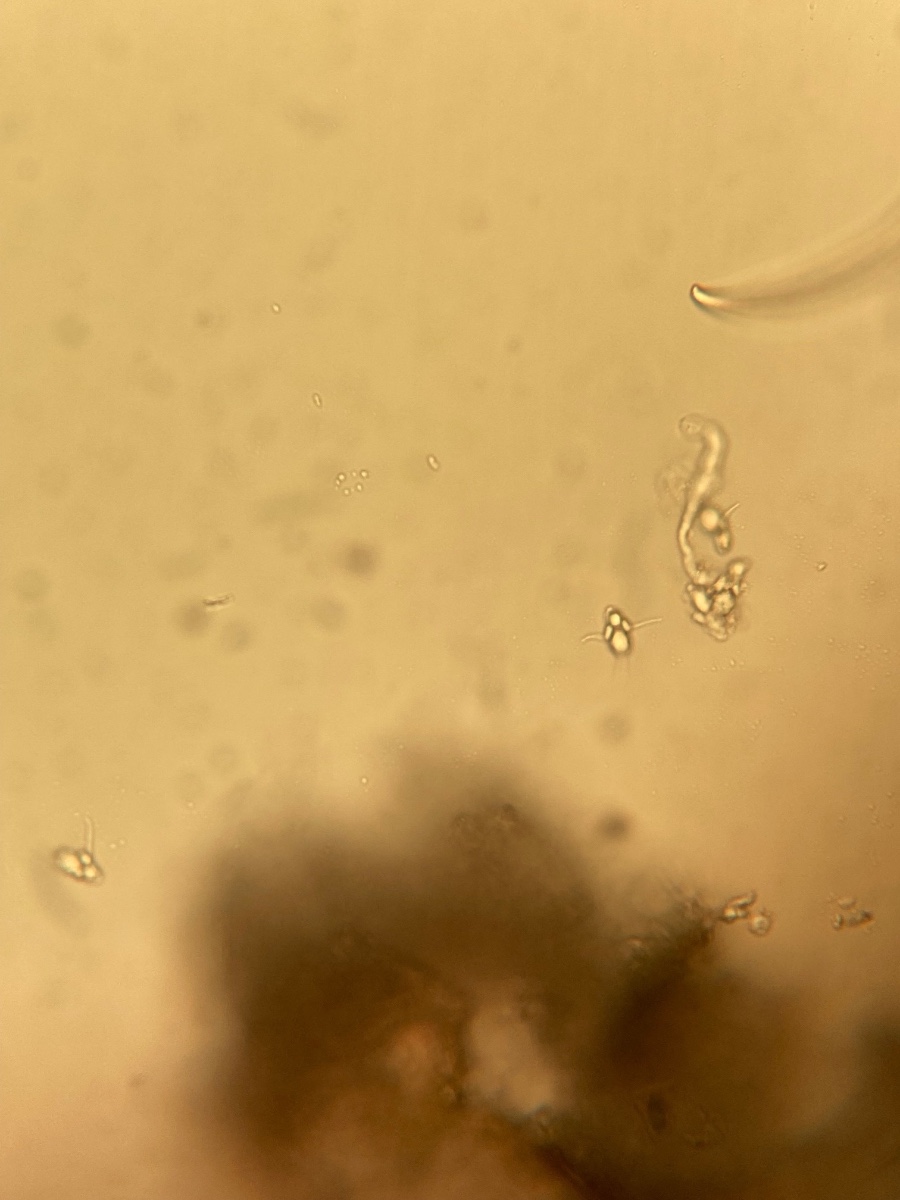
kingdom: Fungi
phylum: Ascomycota
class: Leotiomycetes
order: Helotiales
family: Drepanopezizaceae
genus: Diplocarpon
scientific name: Diplocarpon mespili
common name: Quince leaf blight
